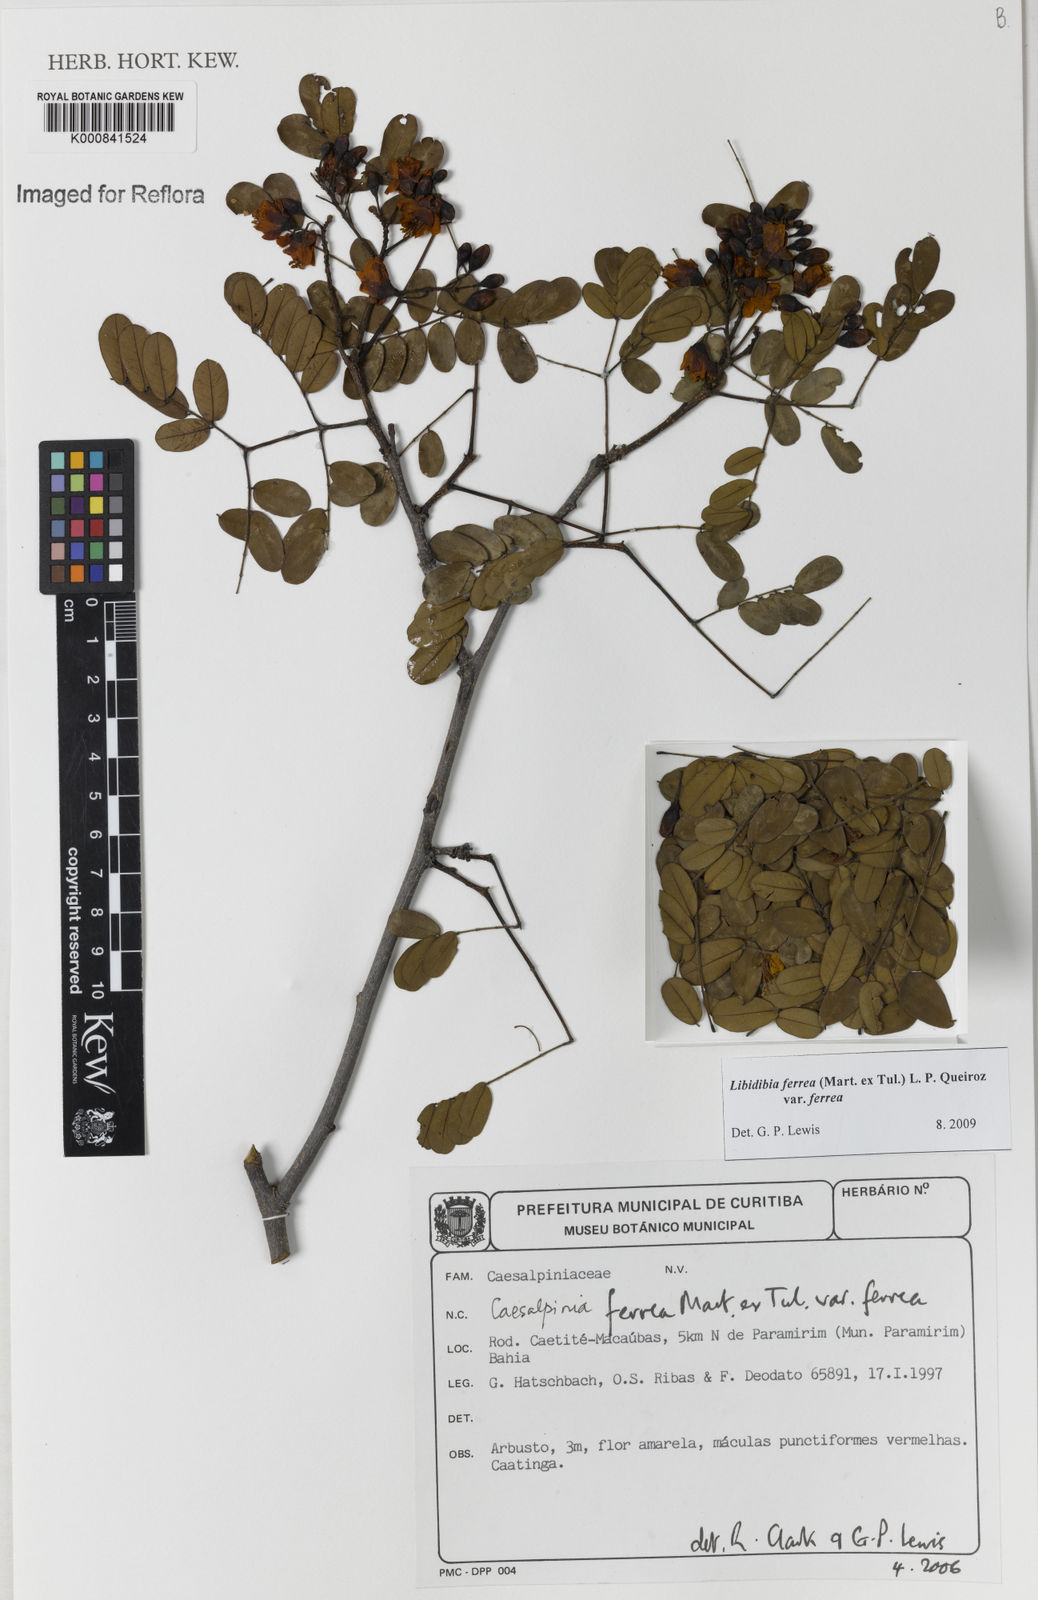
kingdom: Plantae
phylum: Tracheophyta
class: Magnoliopsida
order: Fabales
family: Fabaceae
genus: Libidibia
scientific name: Libidibia ferrea
